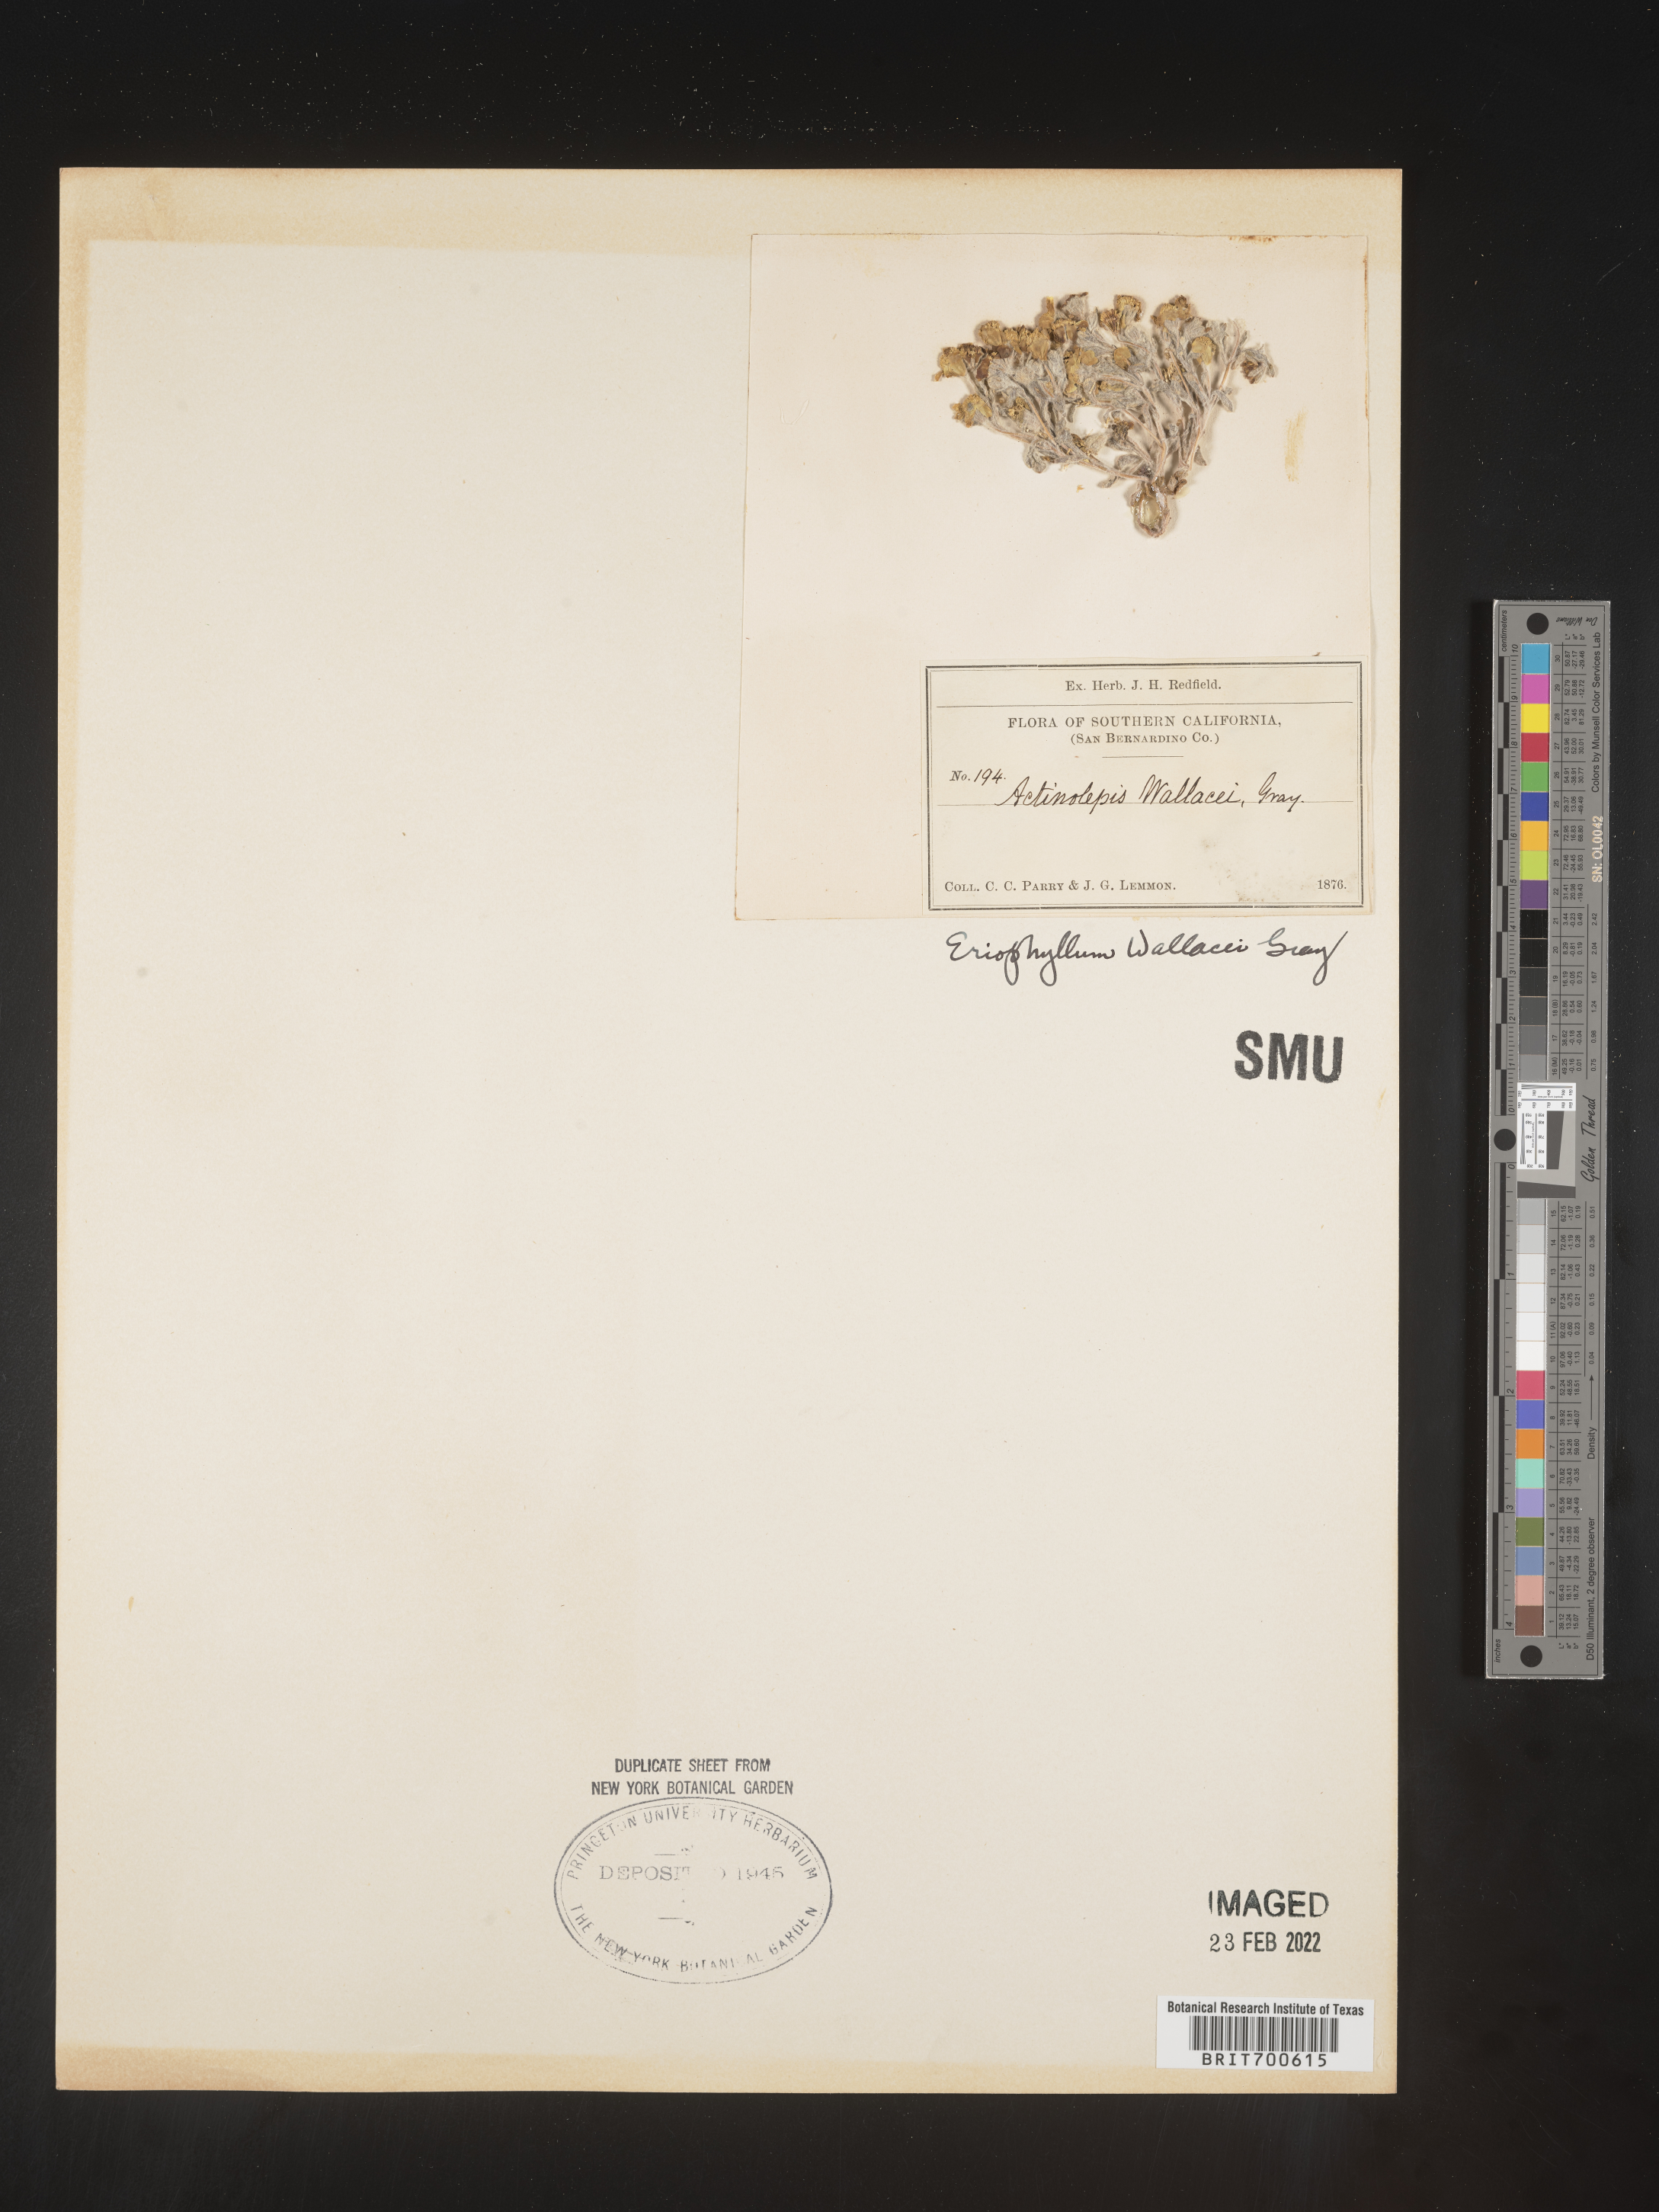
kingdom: Plantae
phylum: Tracheophyta
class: Magnoliopsida
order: Asterales
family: Asteraceae
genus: Eriophyllum
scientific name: Eriophyllum wallacei
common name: Wallace's woolly daisy
